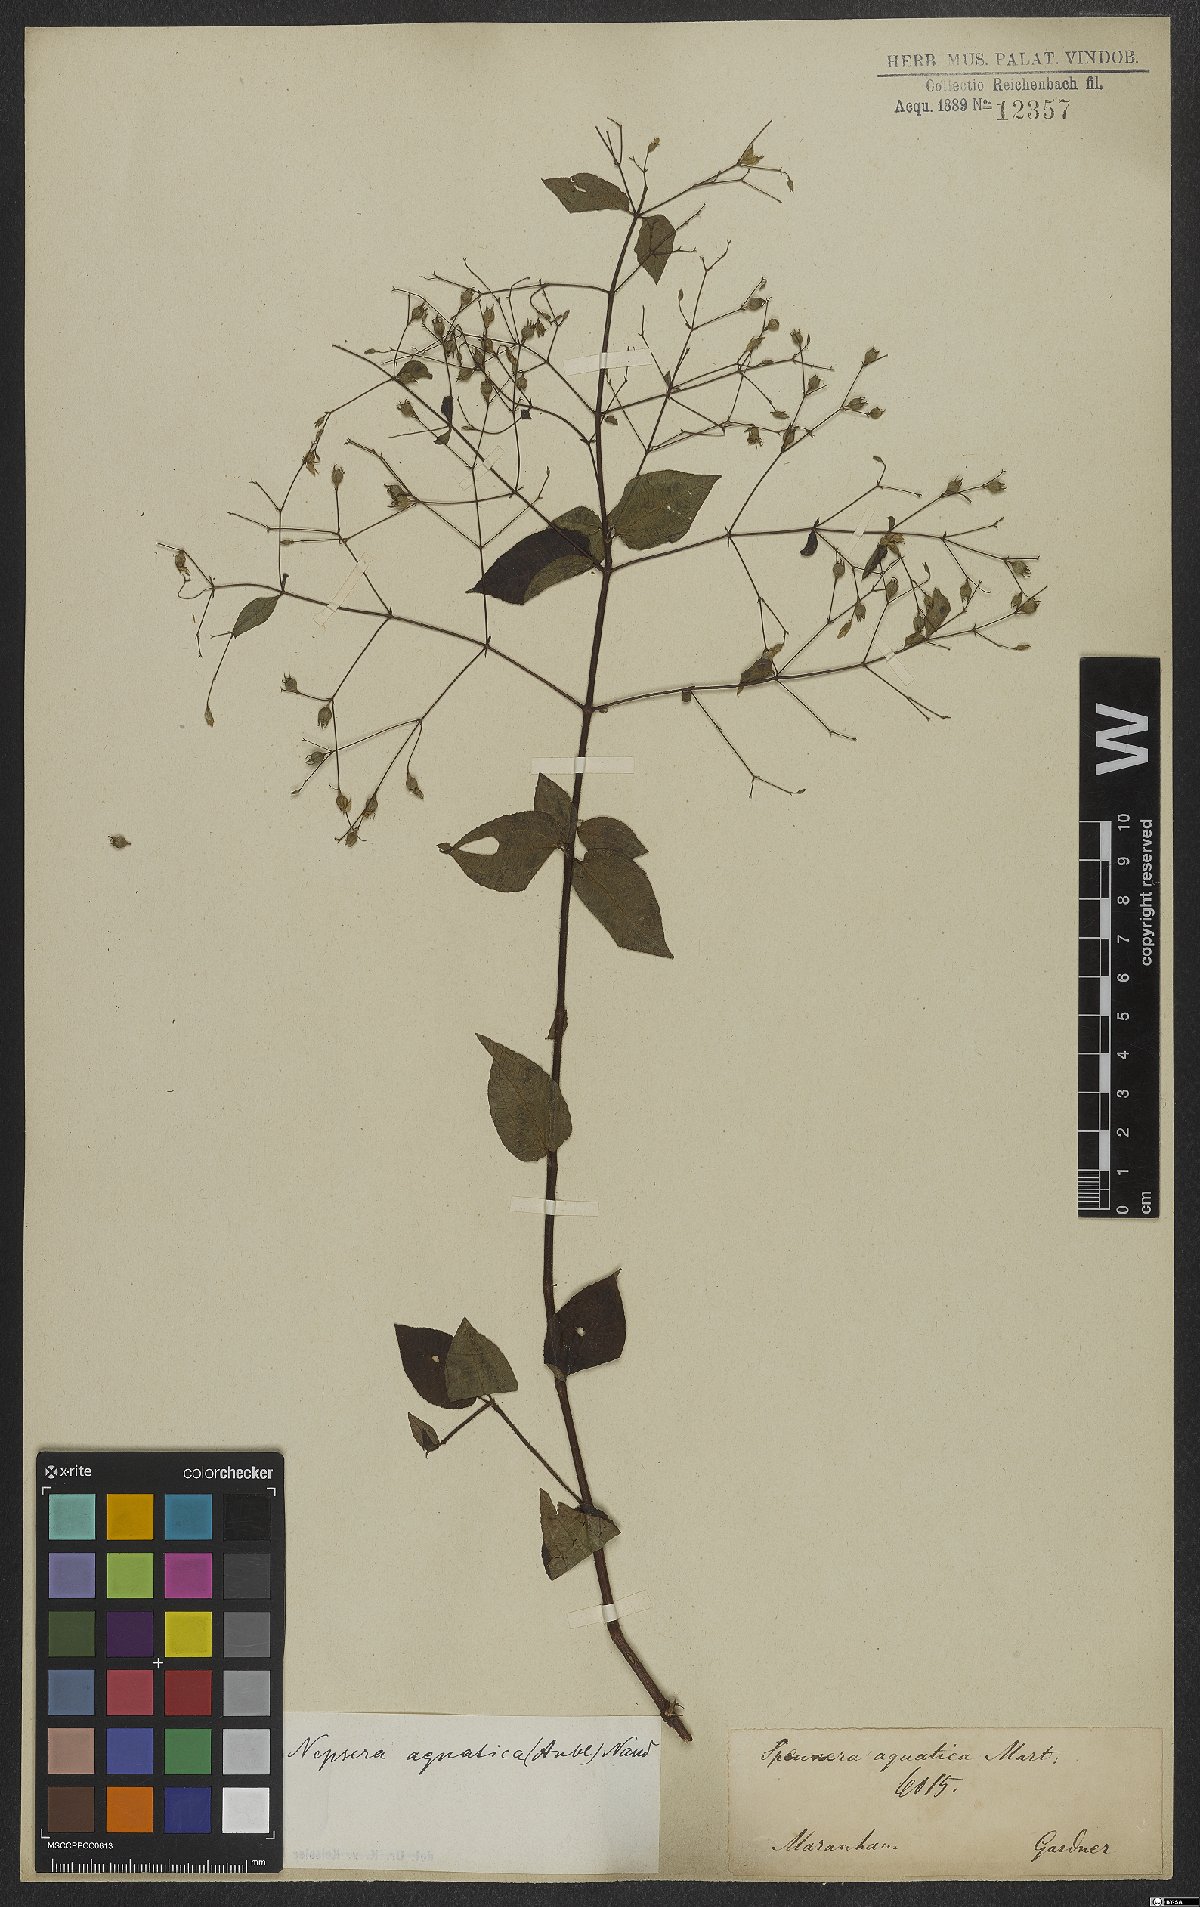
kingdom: Plantae
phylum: Tracheophyta
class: Magnoliopsida
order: Myrtales
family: Melastomataceae
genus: Nepsera
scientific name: Nepsera aquatica
